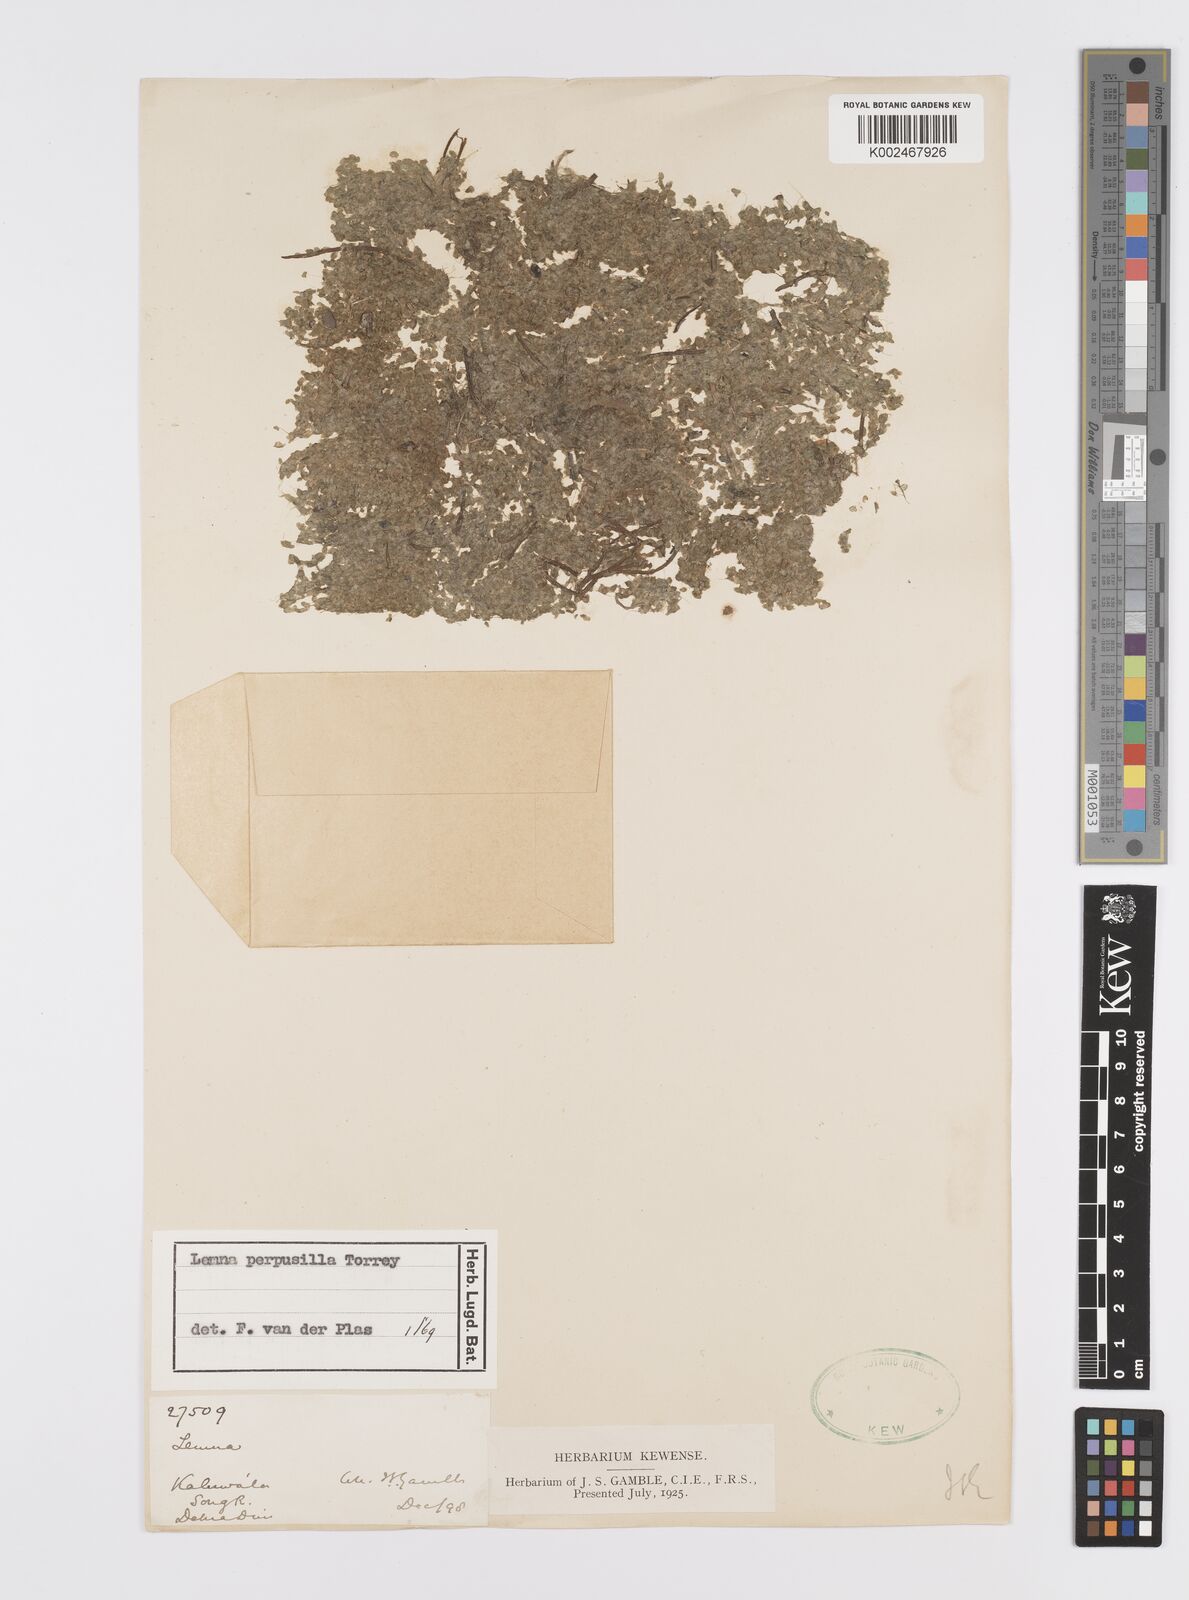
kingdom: Plantae
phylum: Tracheophyta
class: Liliopsida
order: Alismatales
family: Araceae
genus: Lemna
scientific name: Lemna perpusilla
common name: Duckweed
